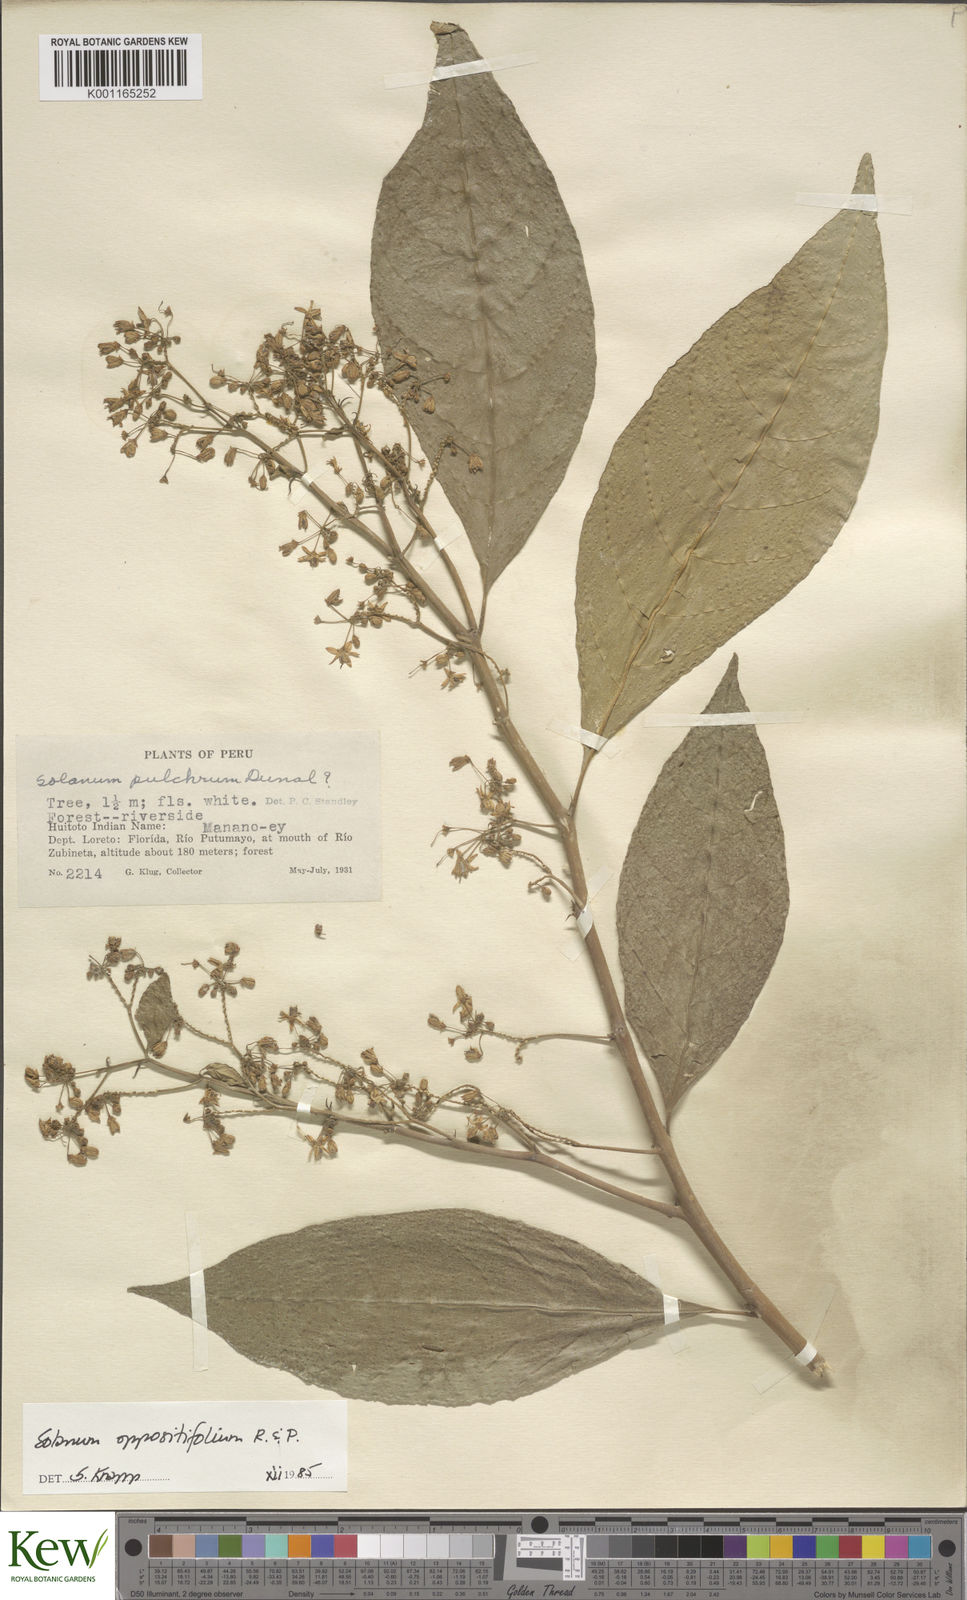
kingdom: Plantae
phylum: Tracheophyta
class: Magnoliopsida
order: Solanales
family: Solanaceae
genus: Solanum
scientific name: Solanum oppositifolium
